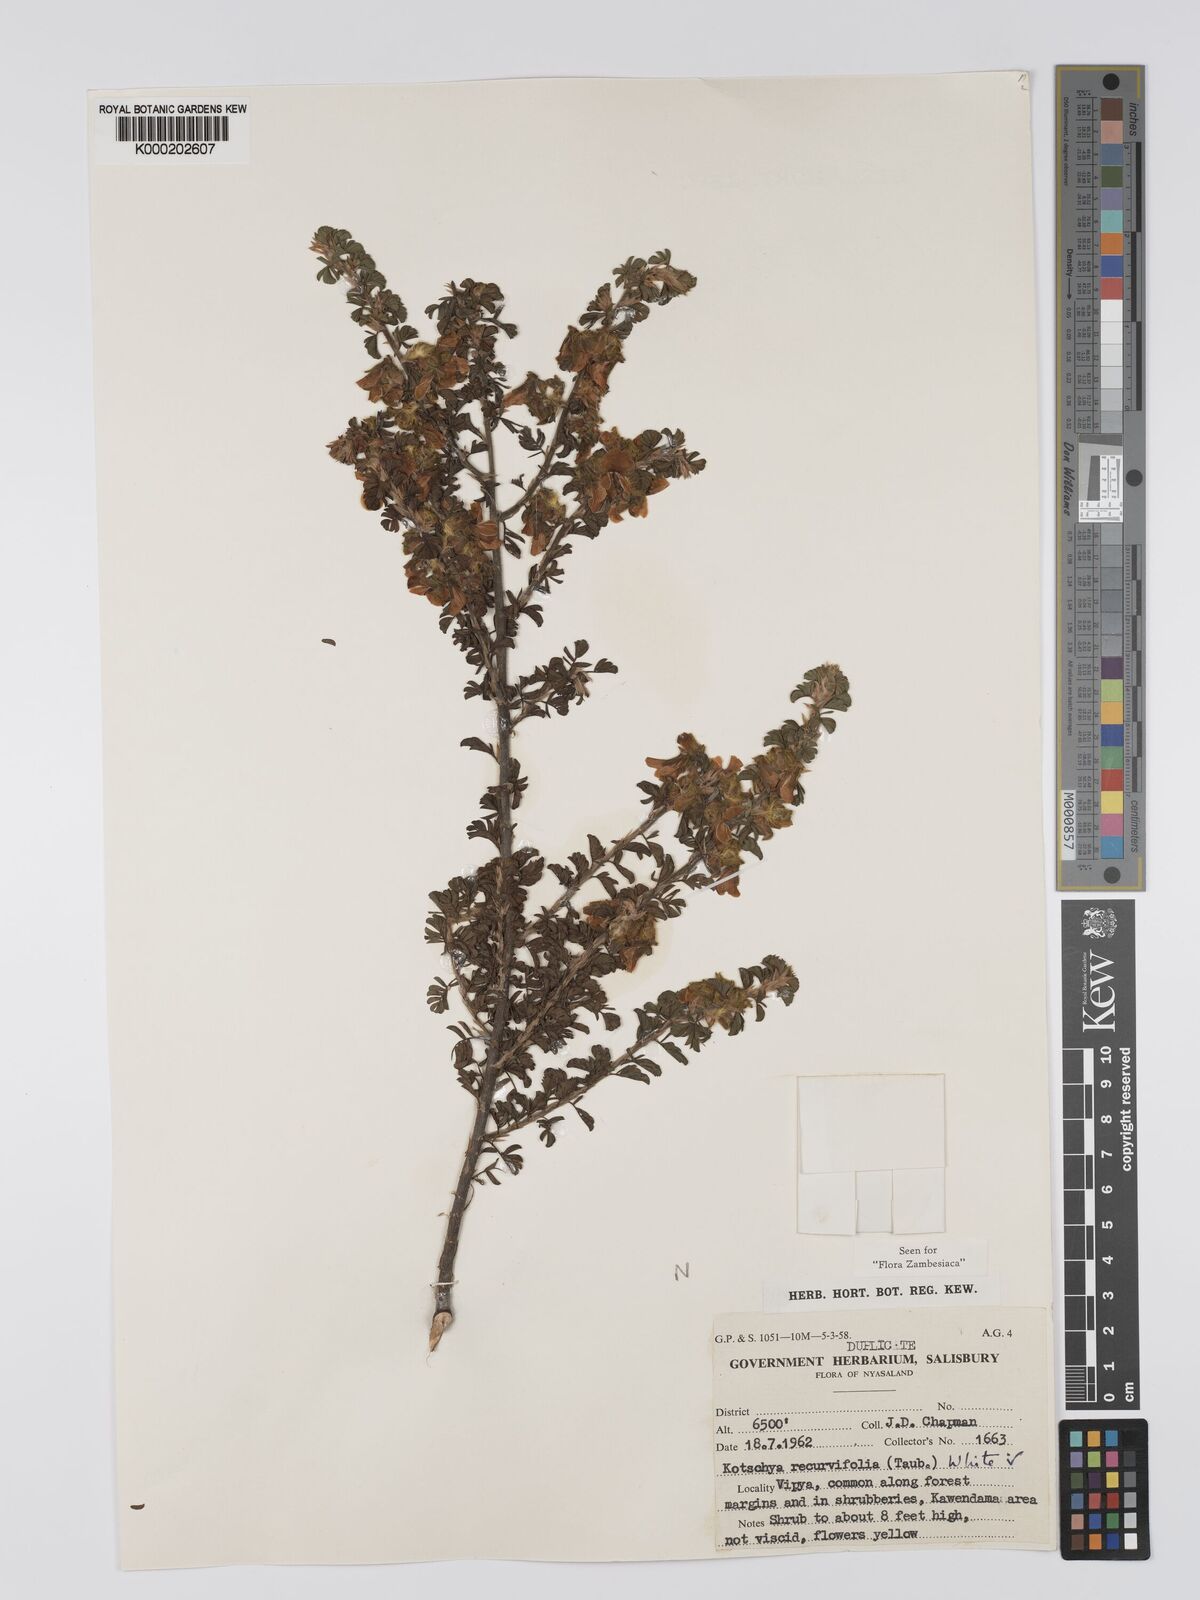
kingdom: Plantae
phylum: Tracheophyta
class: Magnoliopsida
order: Fabales
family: Fabaceae
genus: Kotschya
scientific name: Kotschya recurvifolia
